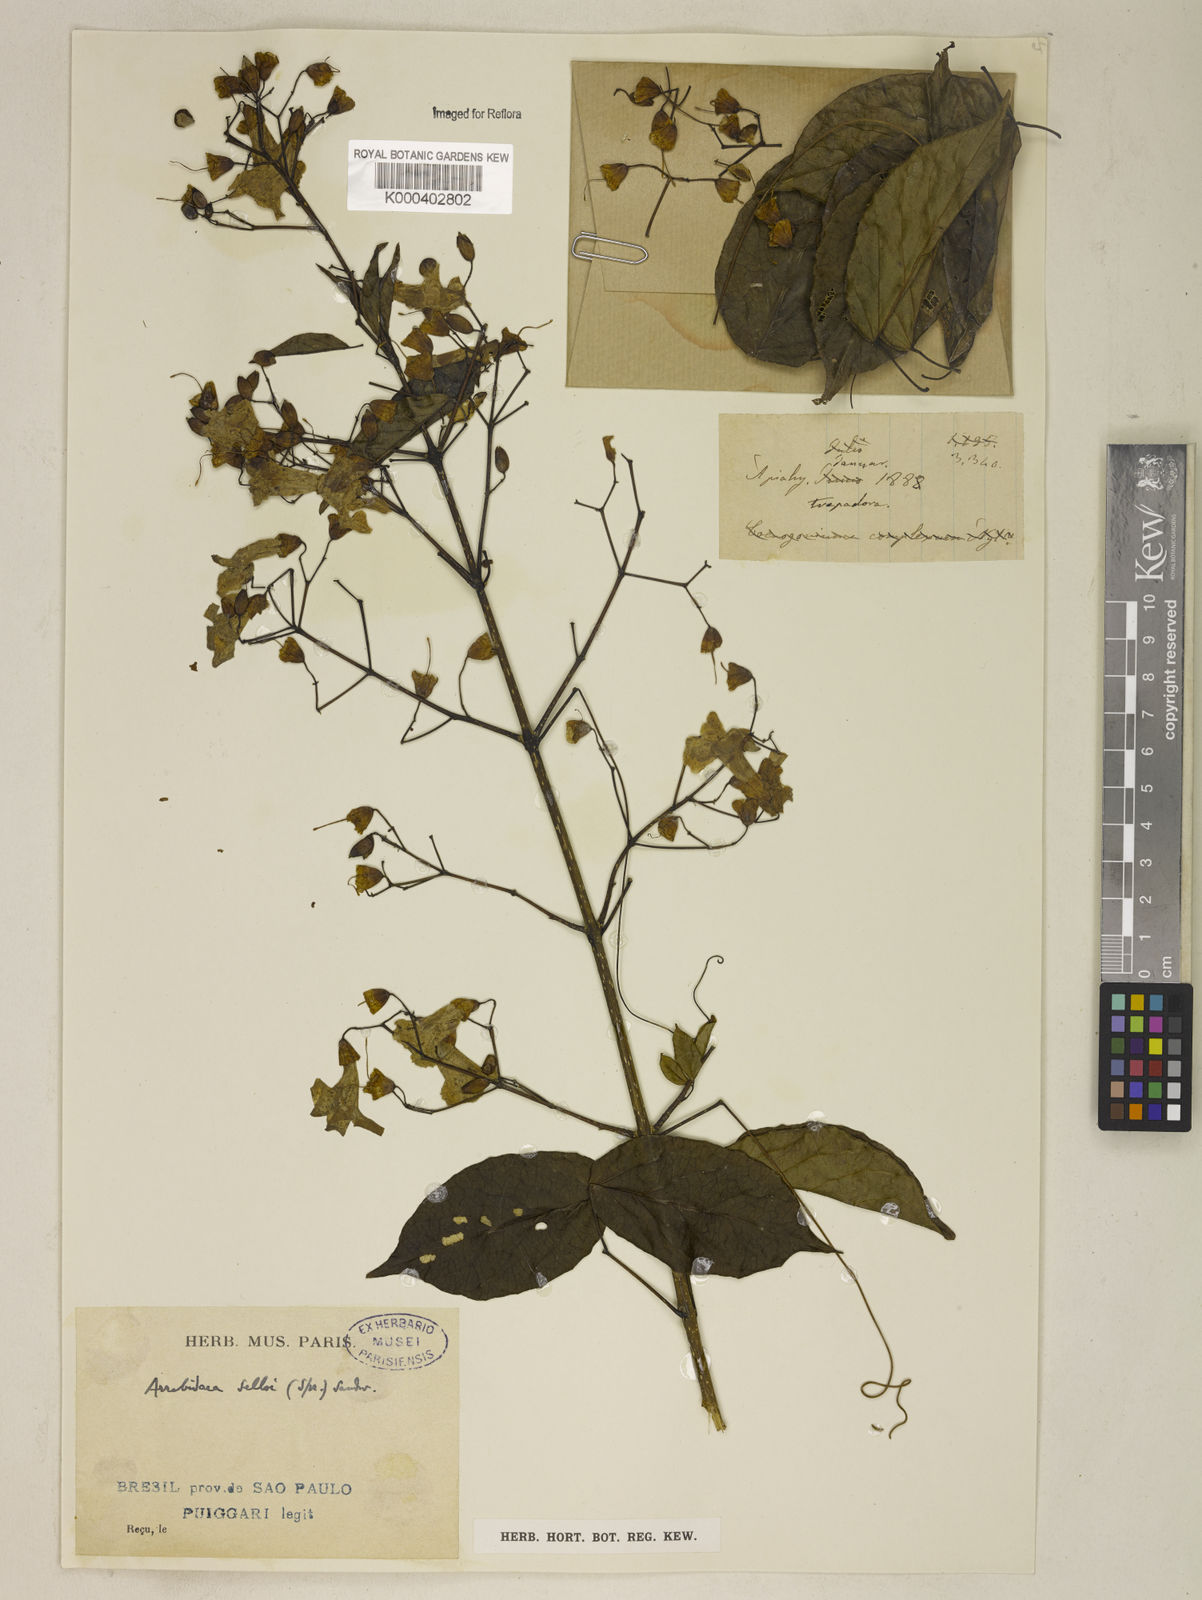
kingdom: Plantae
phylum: Tracheophyta
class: Magnoliopsida
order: Lamiales
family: Bignoniaceae
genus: Tanaecium
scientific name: Tanaecium selloi
